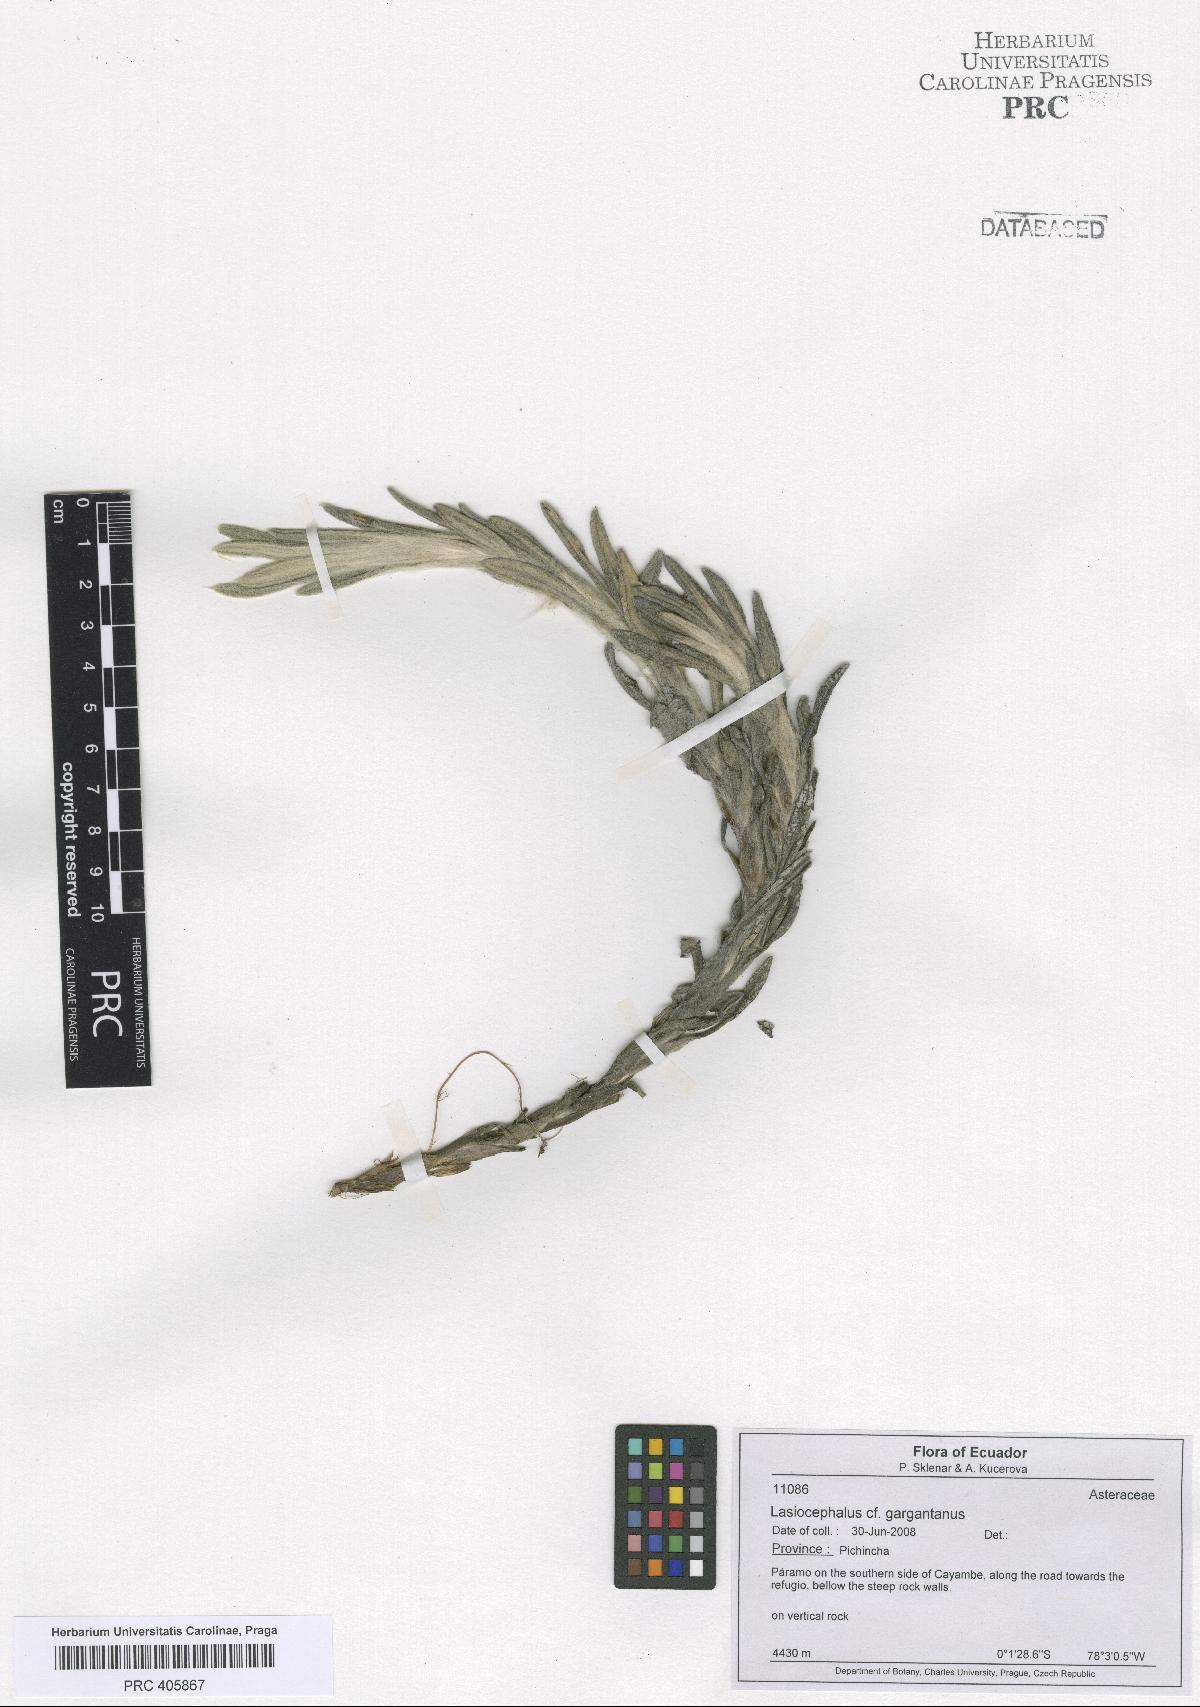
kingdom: Plantae
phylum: Tracheophyta
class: Magnoliopsida
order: Asterales
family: Asteraceae
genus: Aetheolaena
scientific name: Aetheolaena gargantanus
